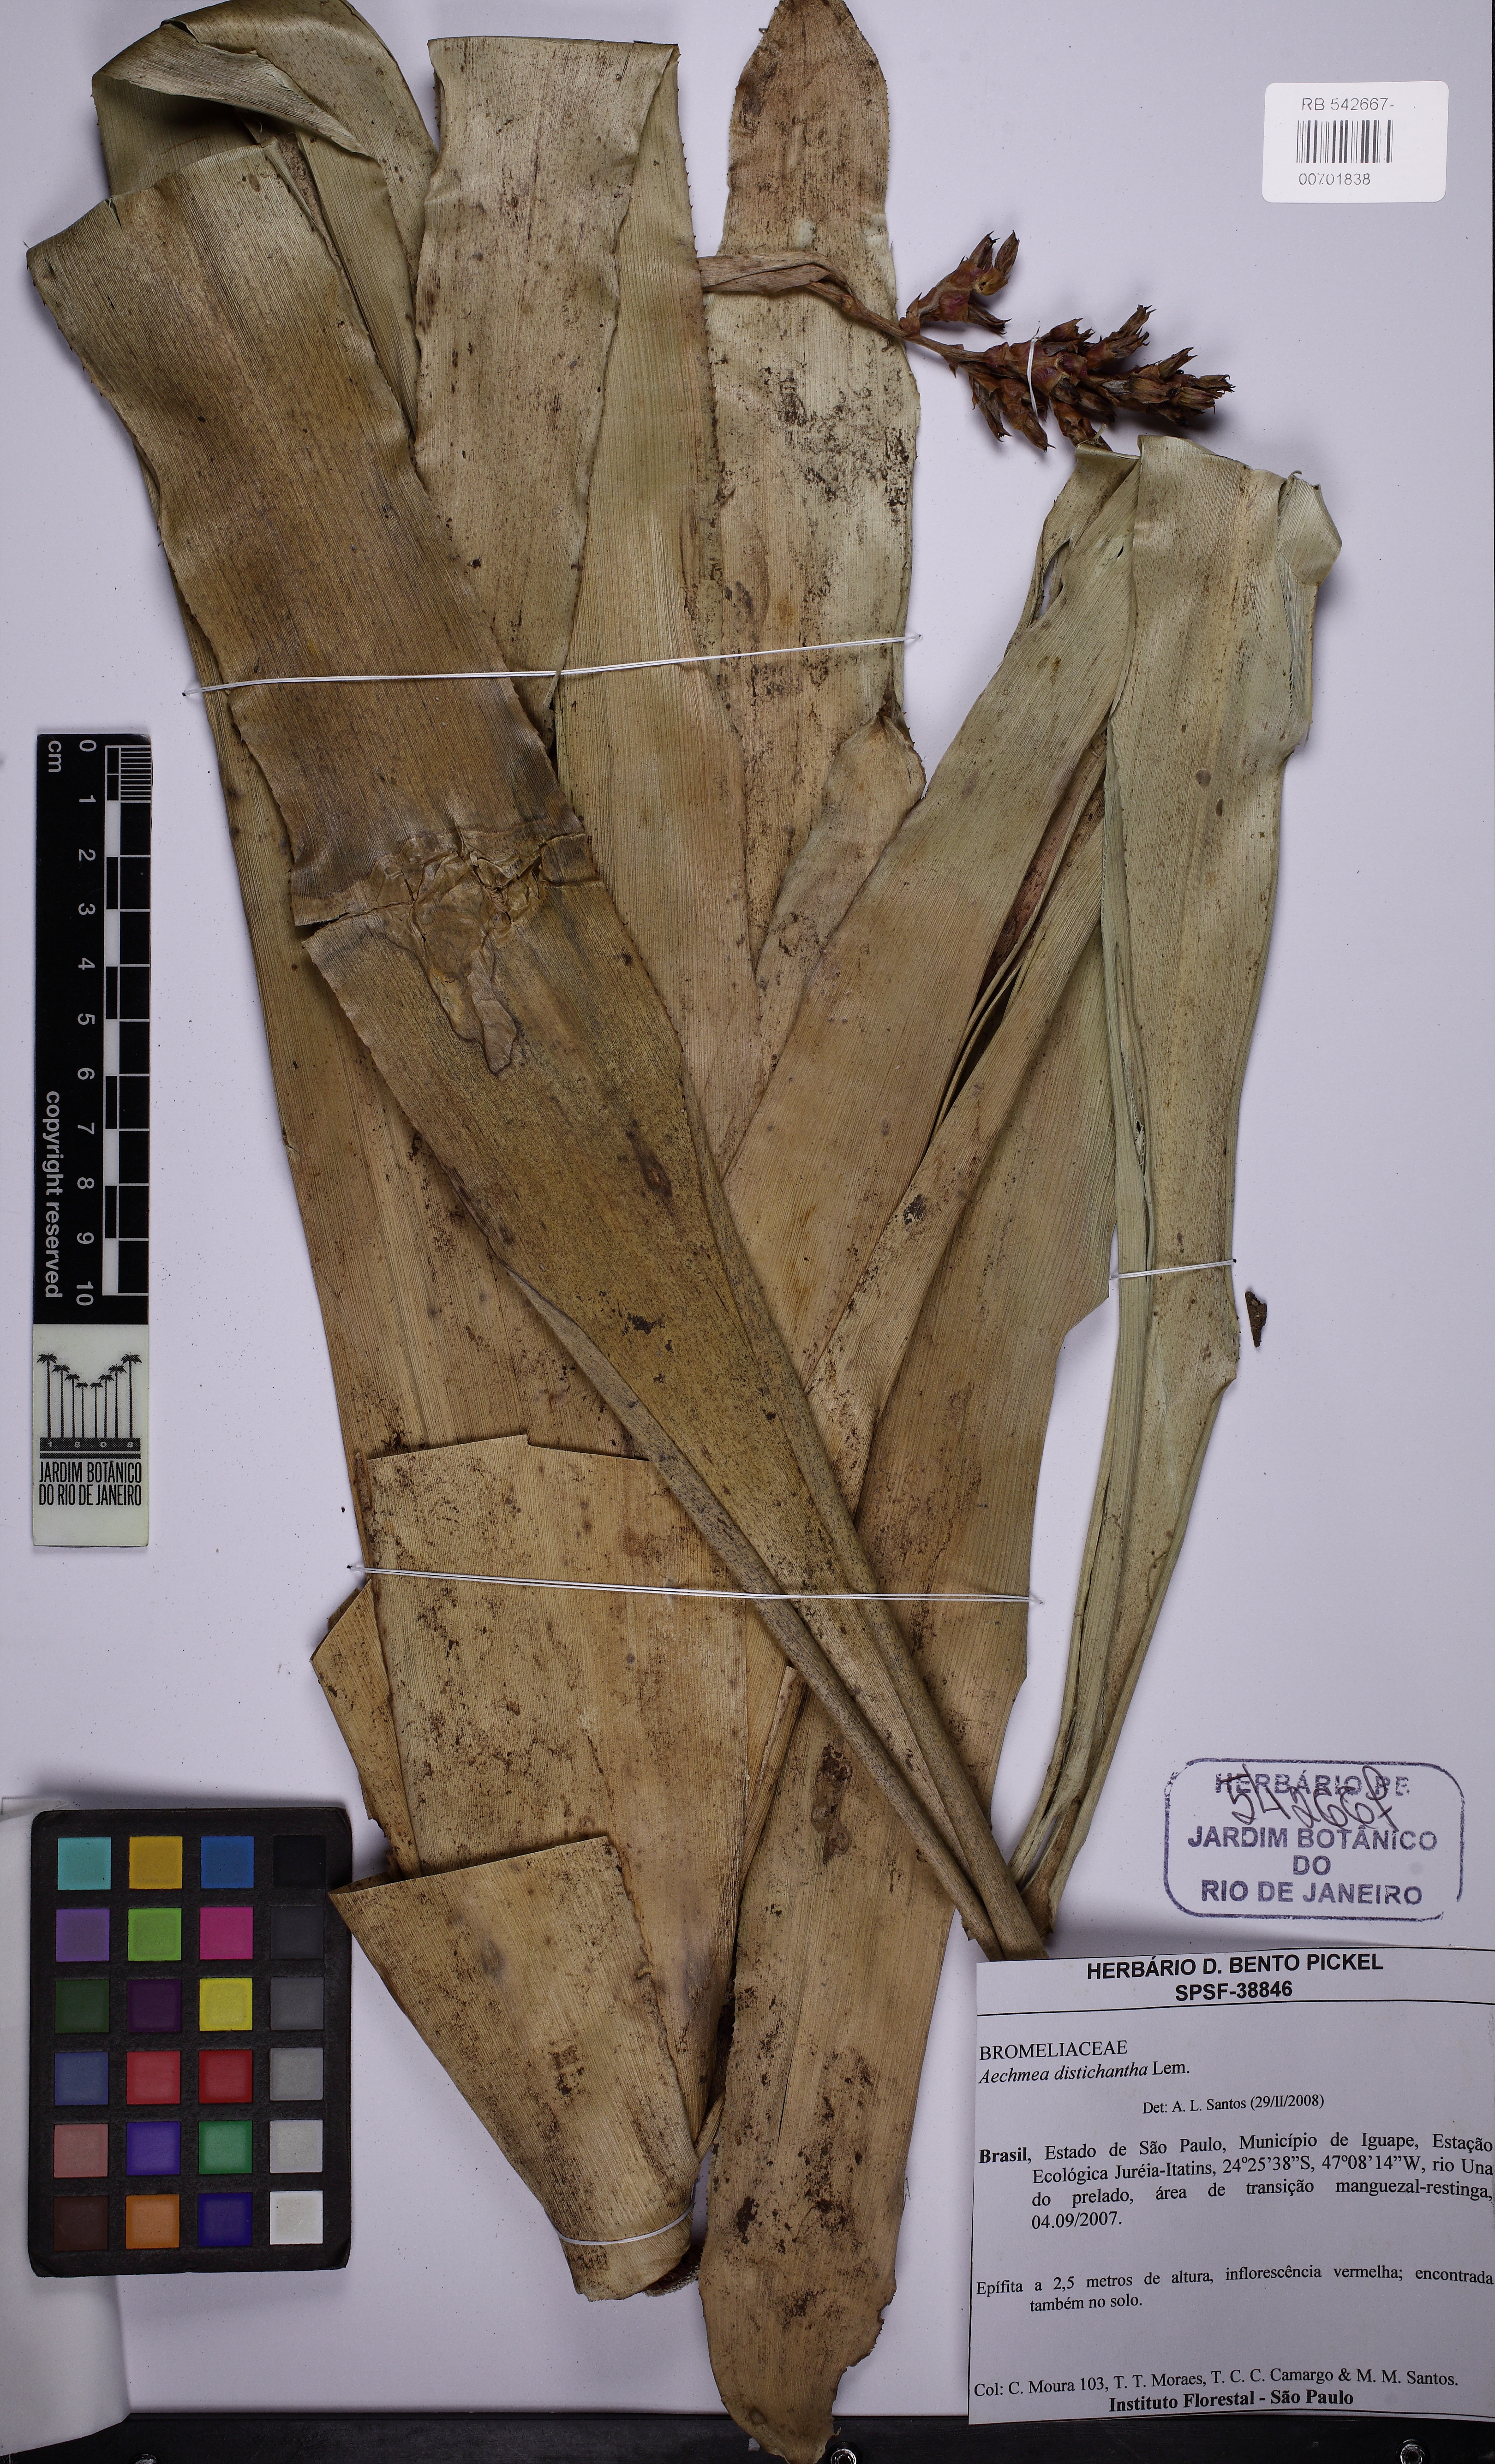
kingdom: Plantae
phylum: Tracheophyta
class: Liliopsida
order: Poales
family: Bromeliaceae
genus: Aechmea
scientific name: Aechmea distichantha
